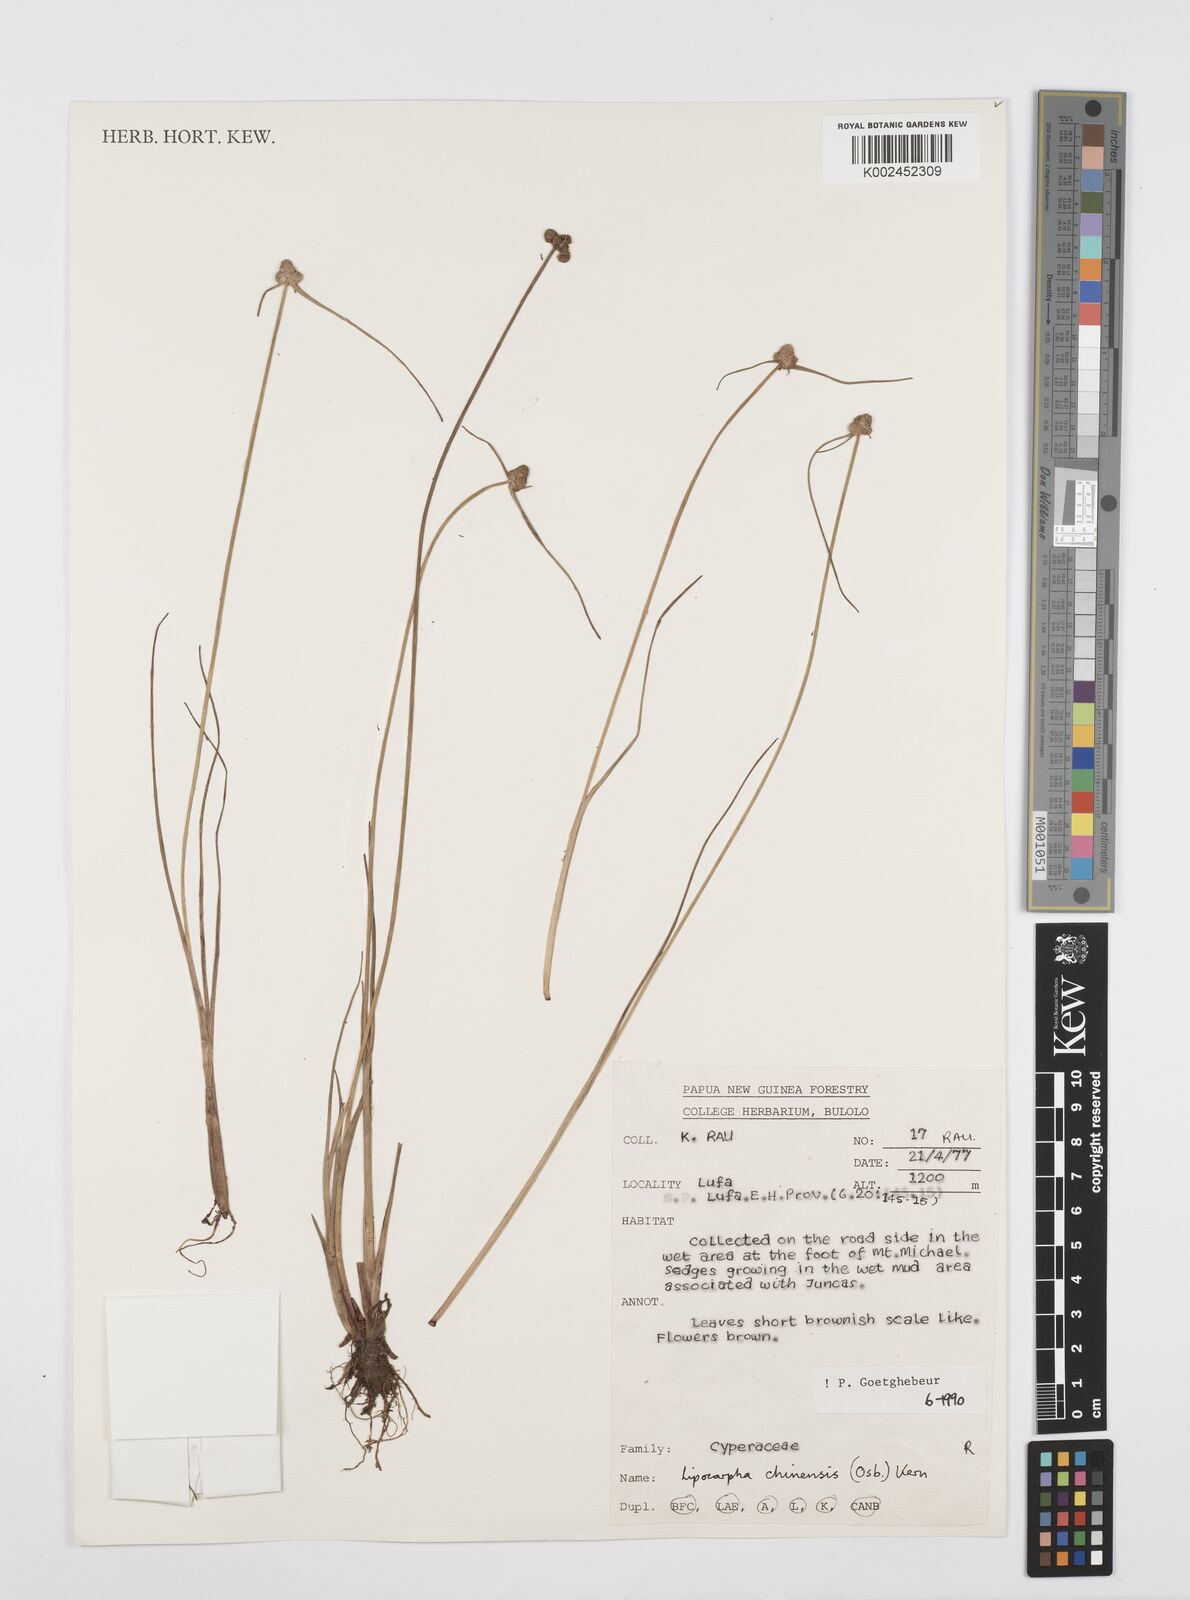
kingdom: Plantae
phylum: Tracheophyta
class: Liliopsida
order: Poales
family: Cyperaceae
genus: Cyperus
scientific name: Cyperus
